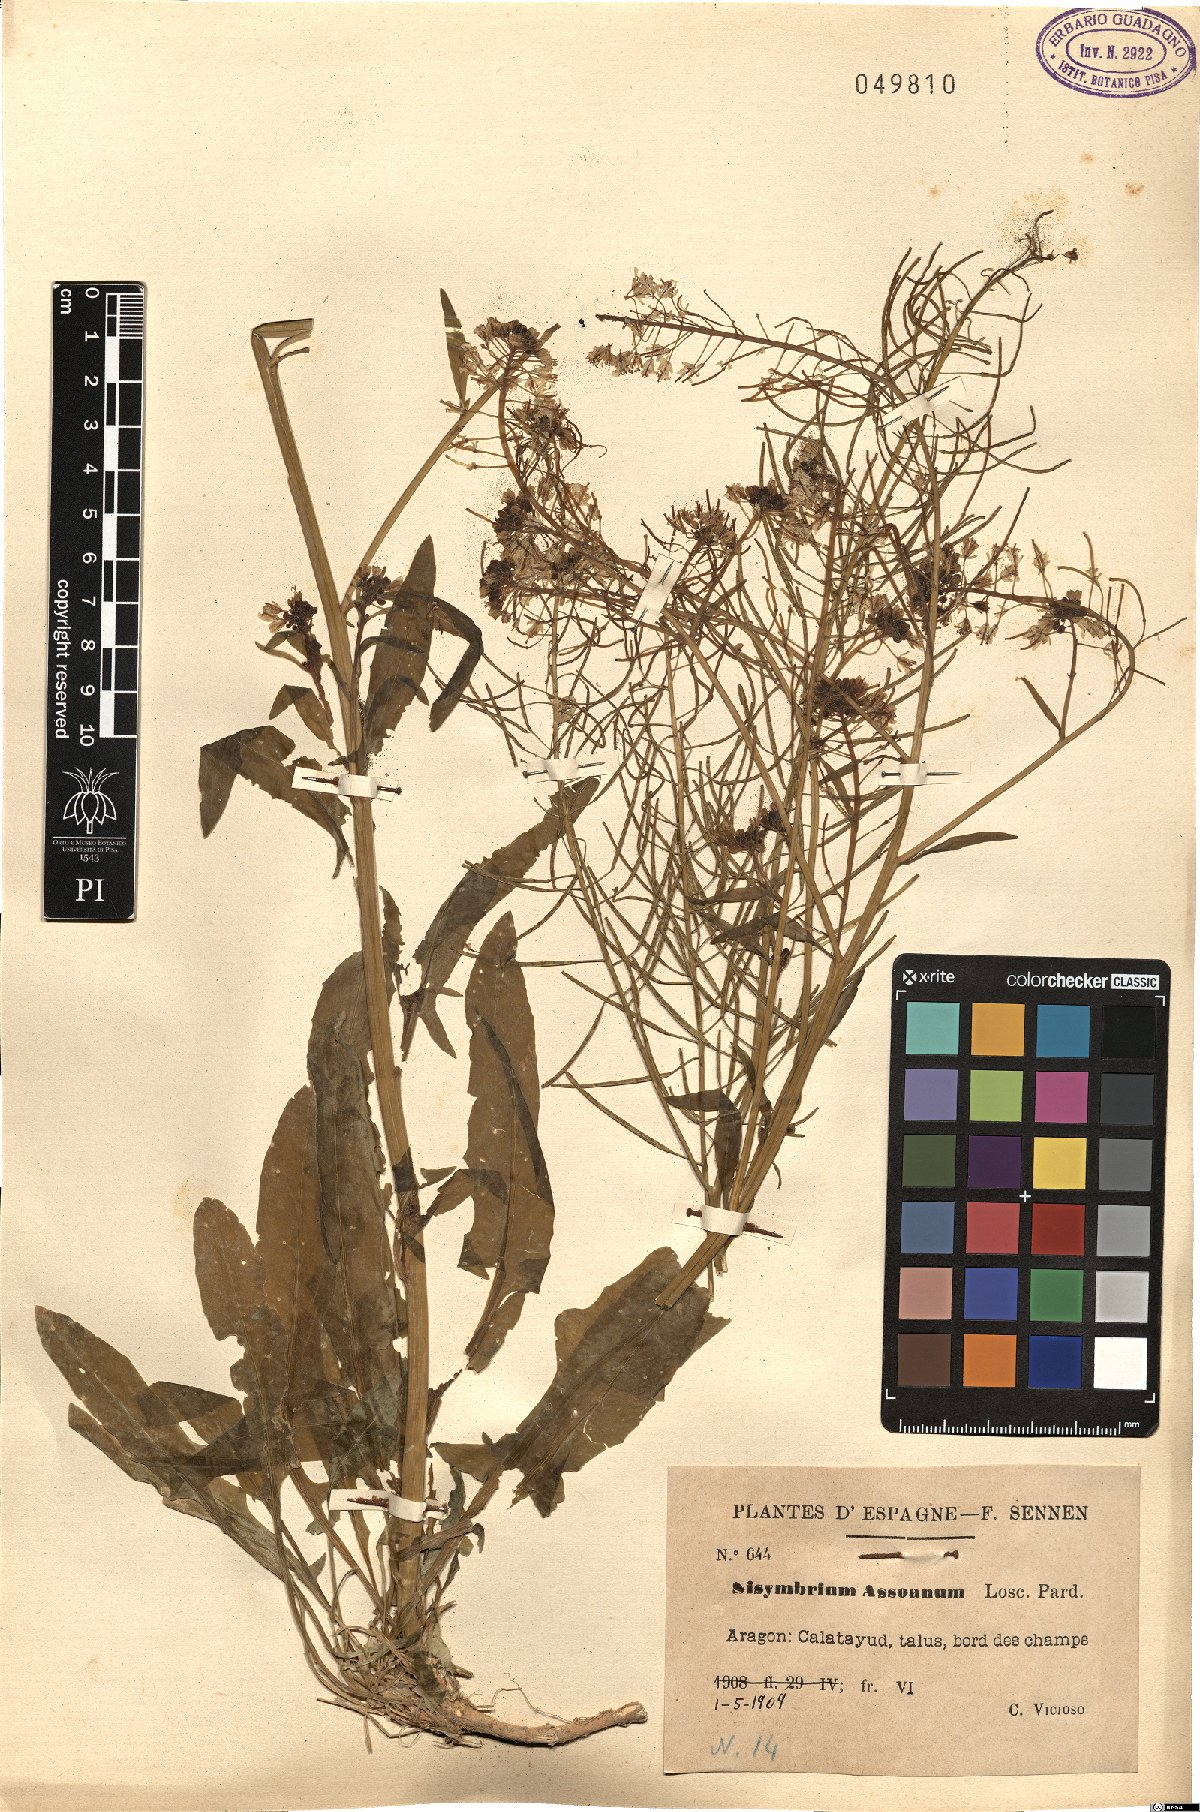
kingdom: Plantae
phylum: Tracheophyta
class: Magnoliopsida
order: Brassicales
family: Brassicaceae
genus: Sisymbrium
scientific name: Sisymbrium assoanum
